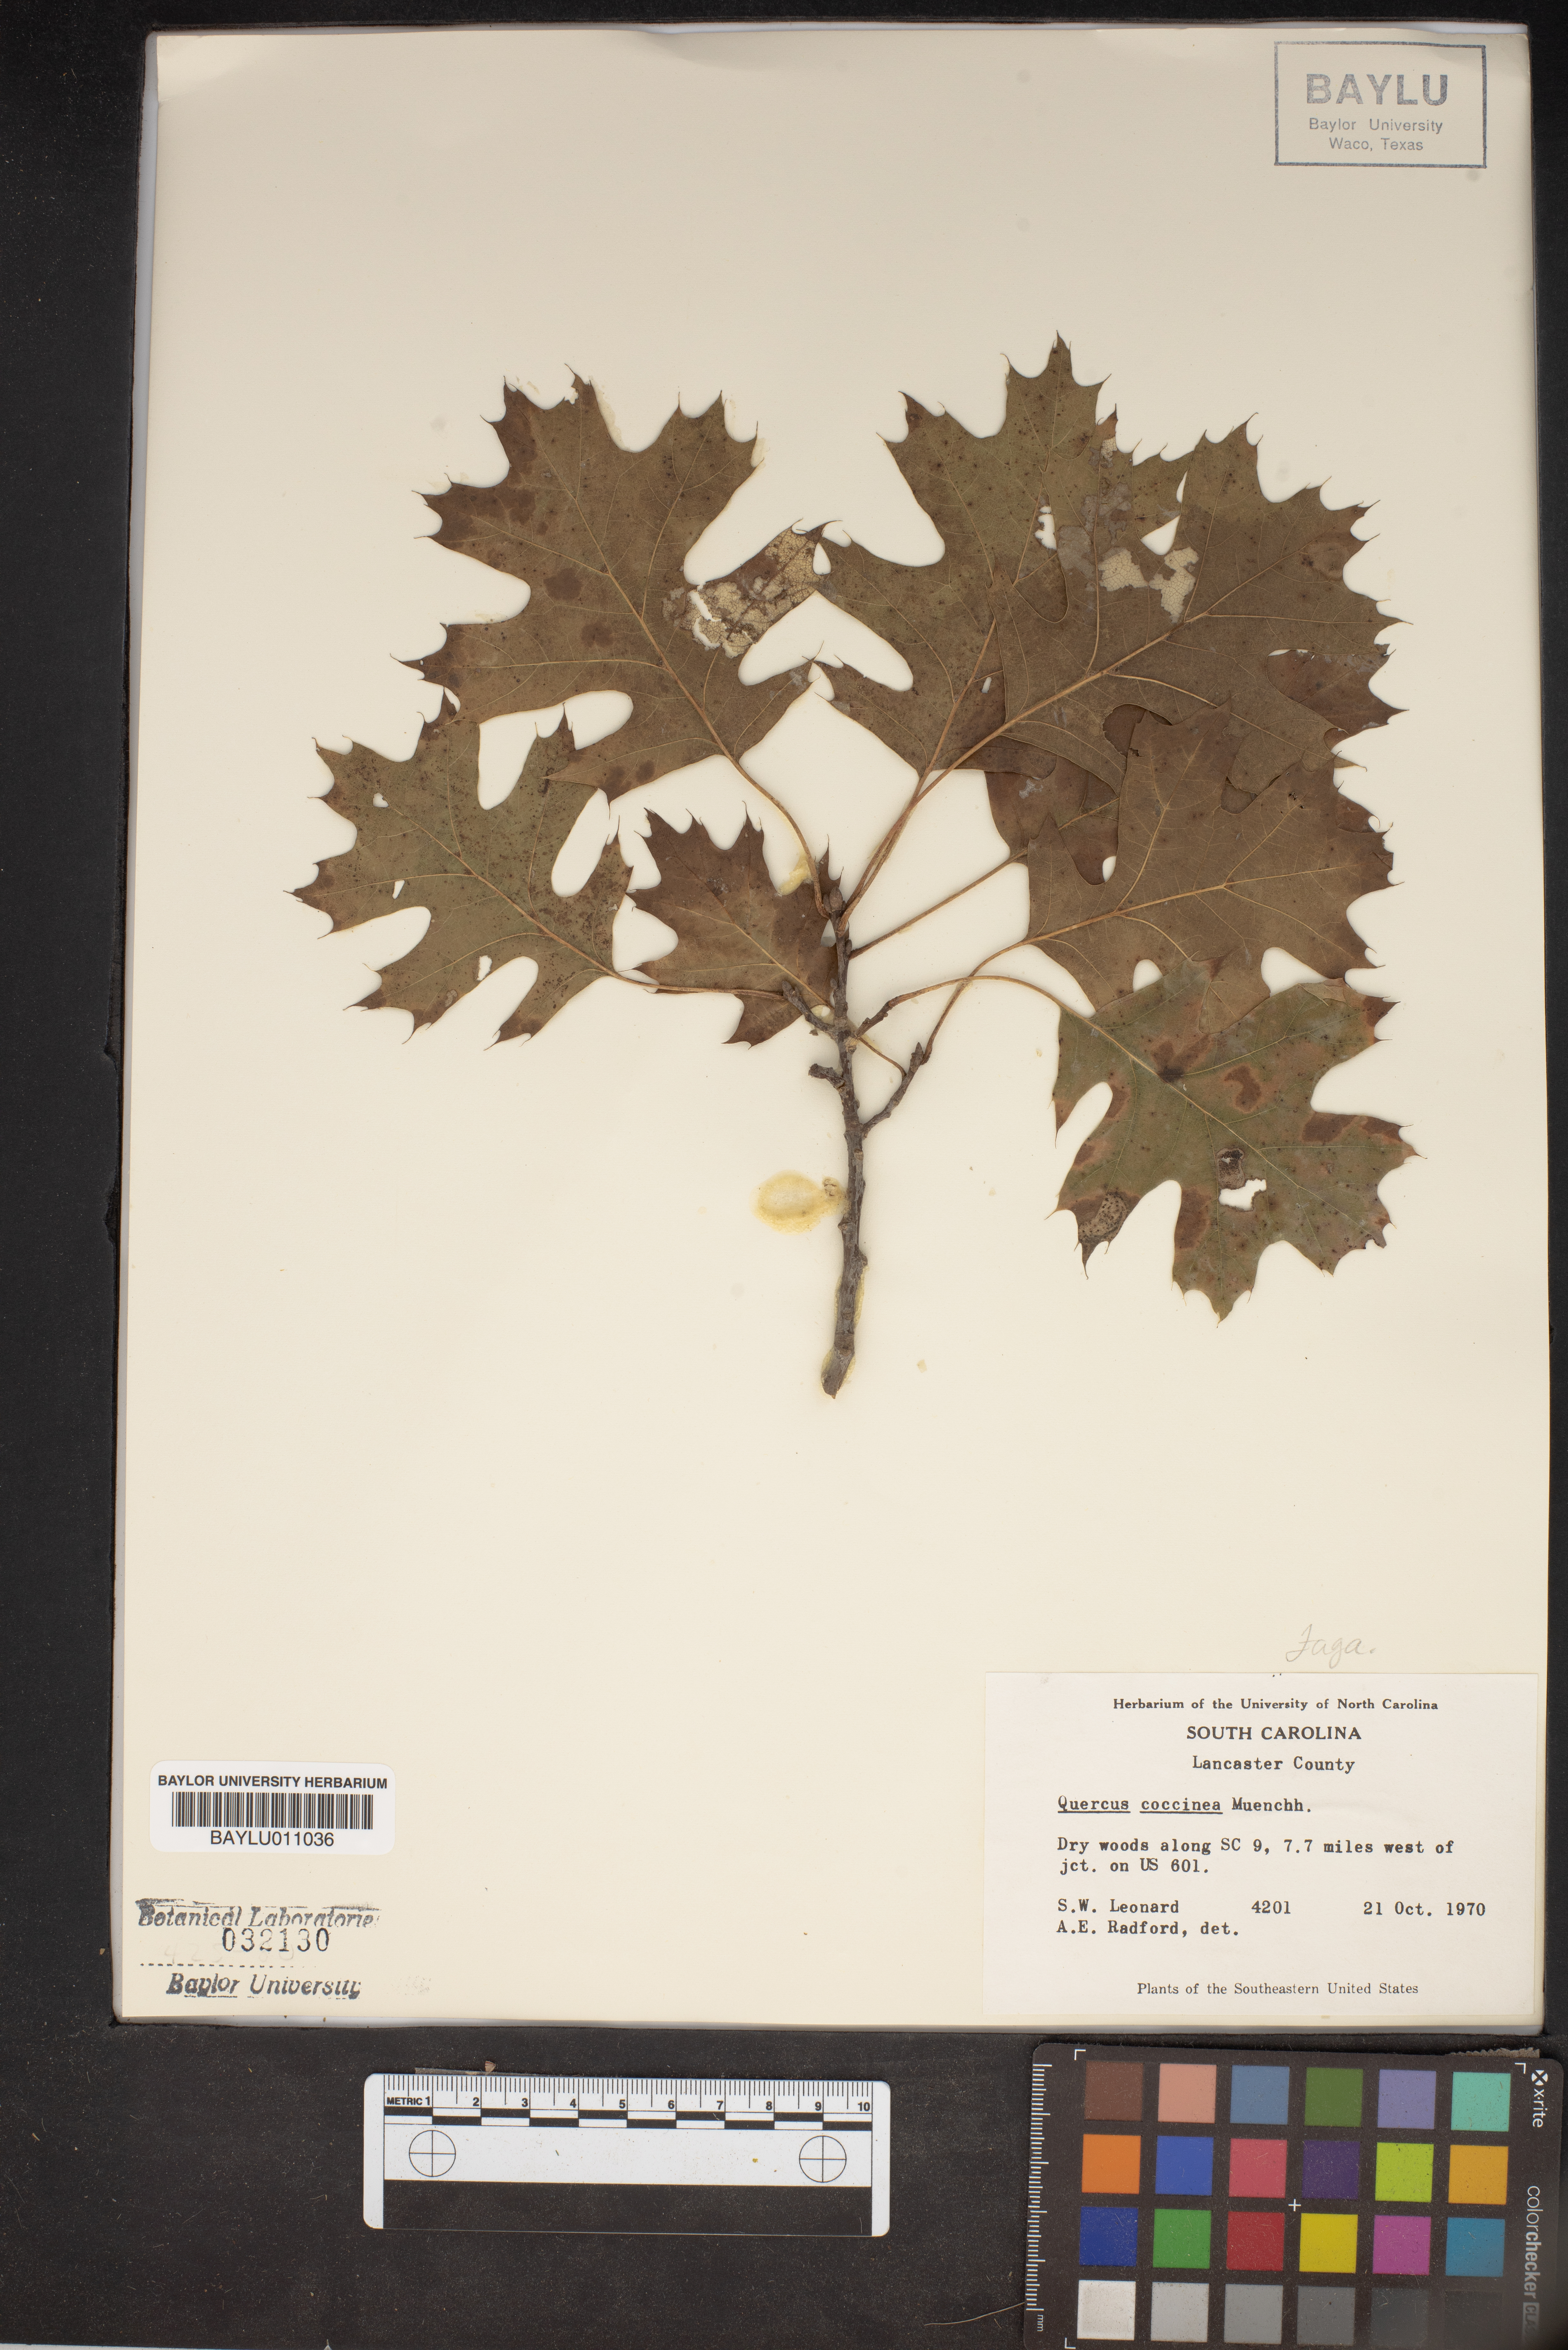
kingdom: Plantae
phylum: Tracheophyta
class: Magnoliopsida
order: Fagales
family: Fagaceae
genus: Quercus
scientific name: Quercus coccinea
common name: Scarlet oak
